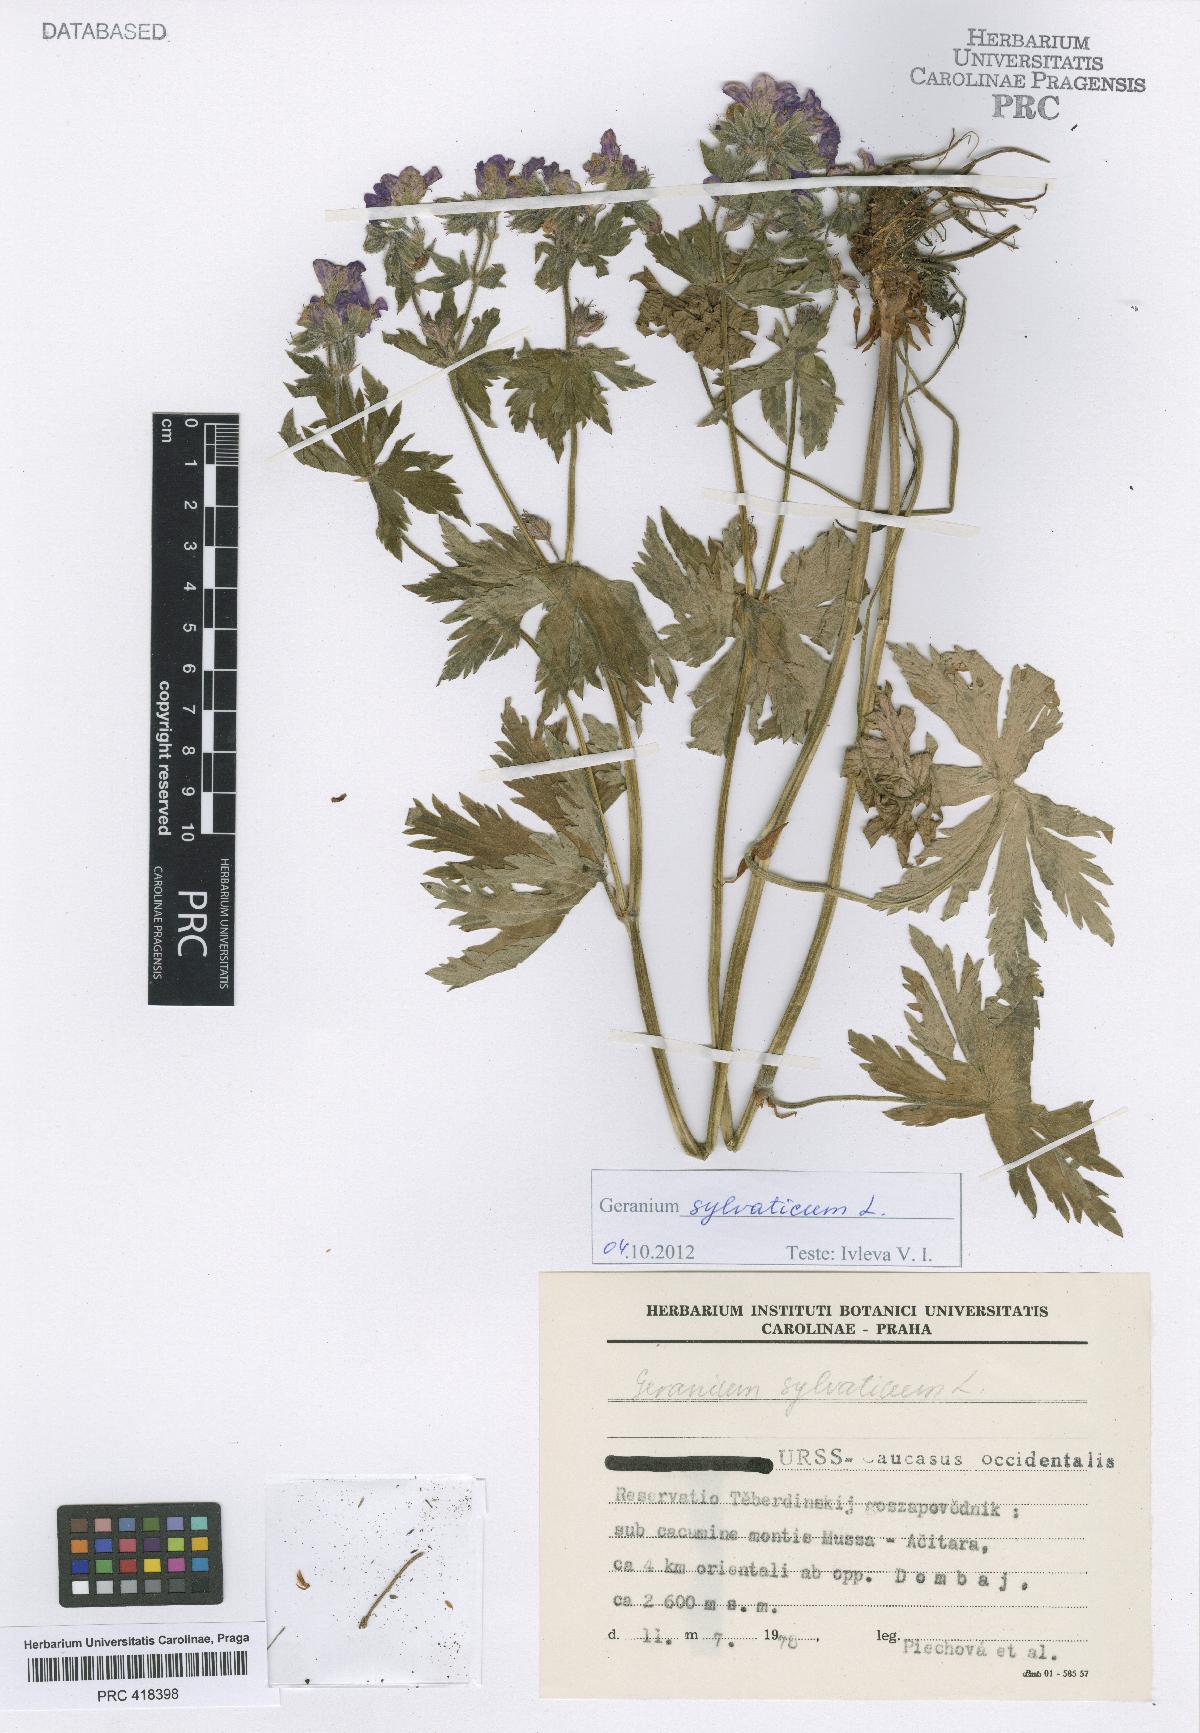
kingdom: Plantae
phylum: Tracheophyta
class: Magnoliopsida
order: Geraniales
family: Geraniaceae
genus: Geranium
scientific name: Geranium sylvaticum
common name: Wood crane's-bill
